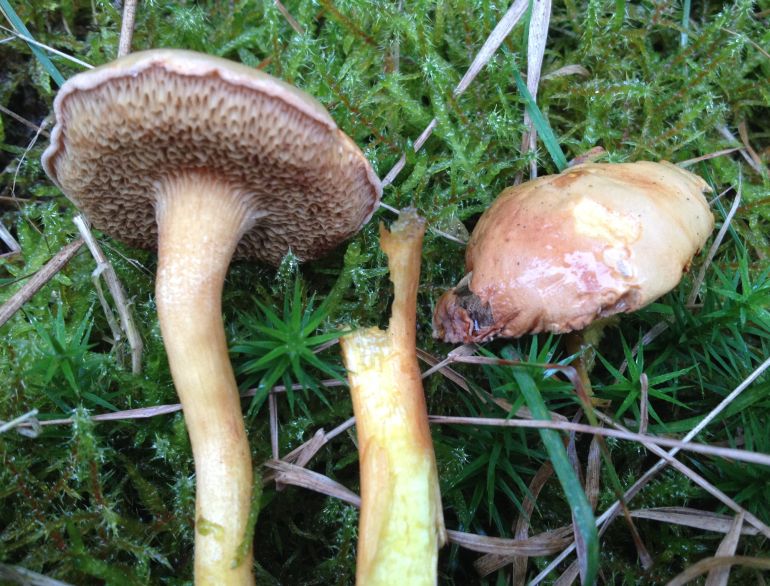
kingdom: Fungi
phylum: Basidiomycota
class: Agaricomycetes
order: Boletales
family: Boletaceae
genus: Chalciporus
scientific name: Chalciporus piperatus
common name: peberrørhat
